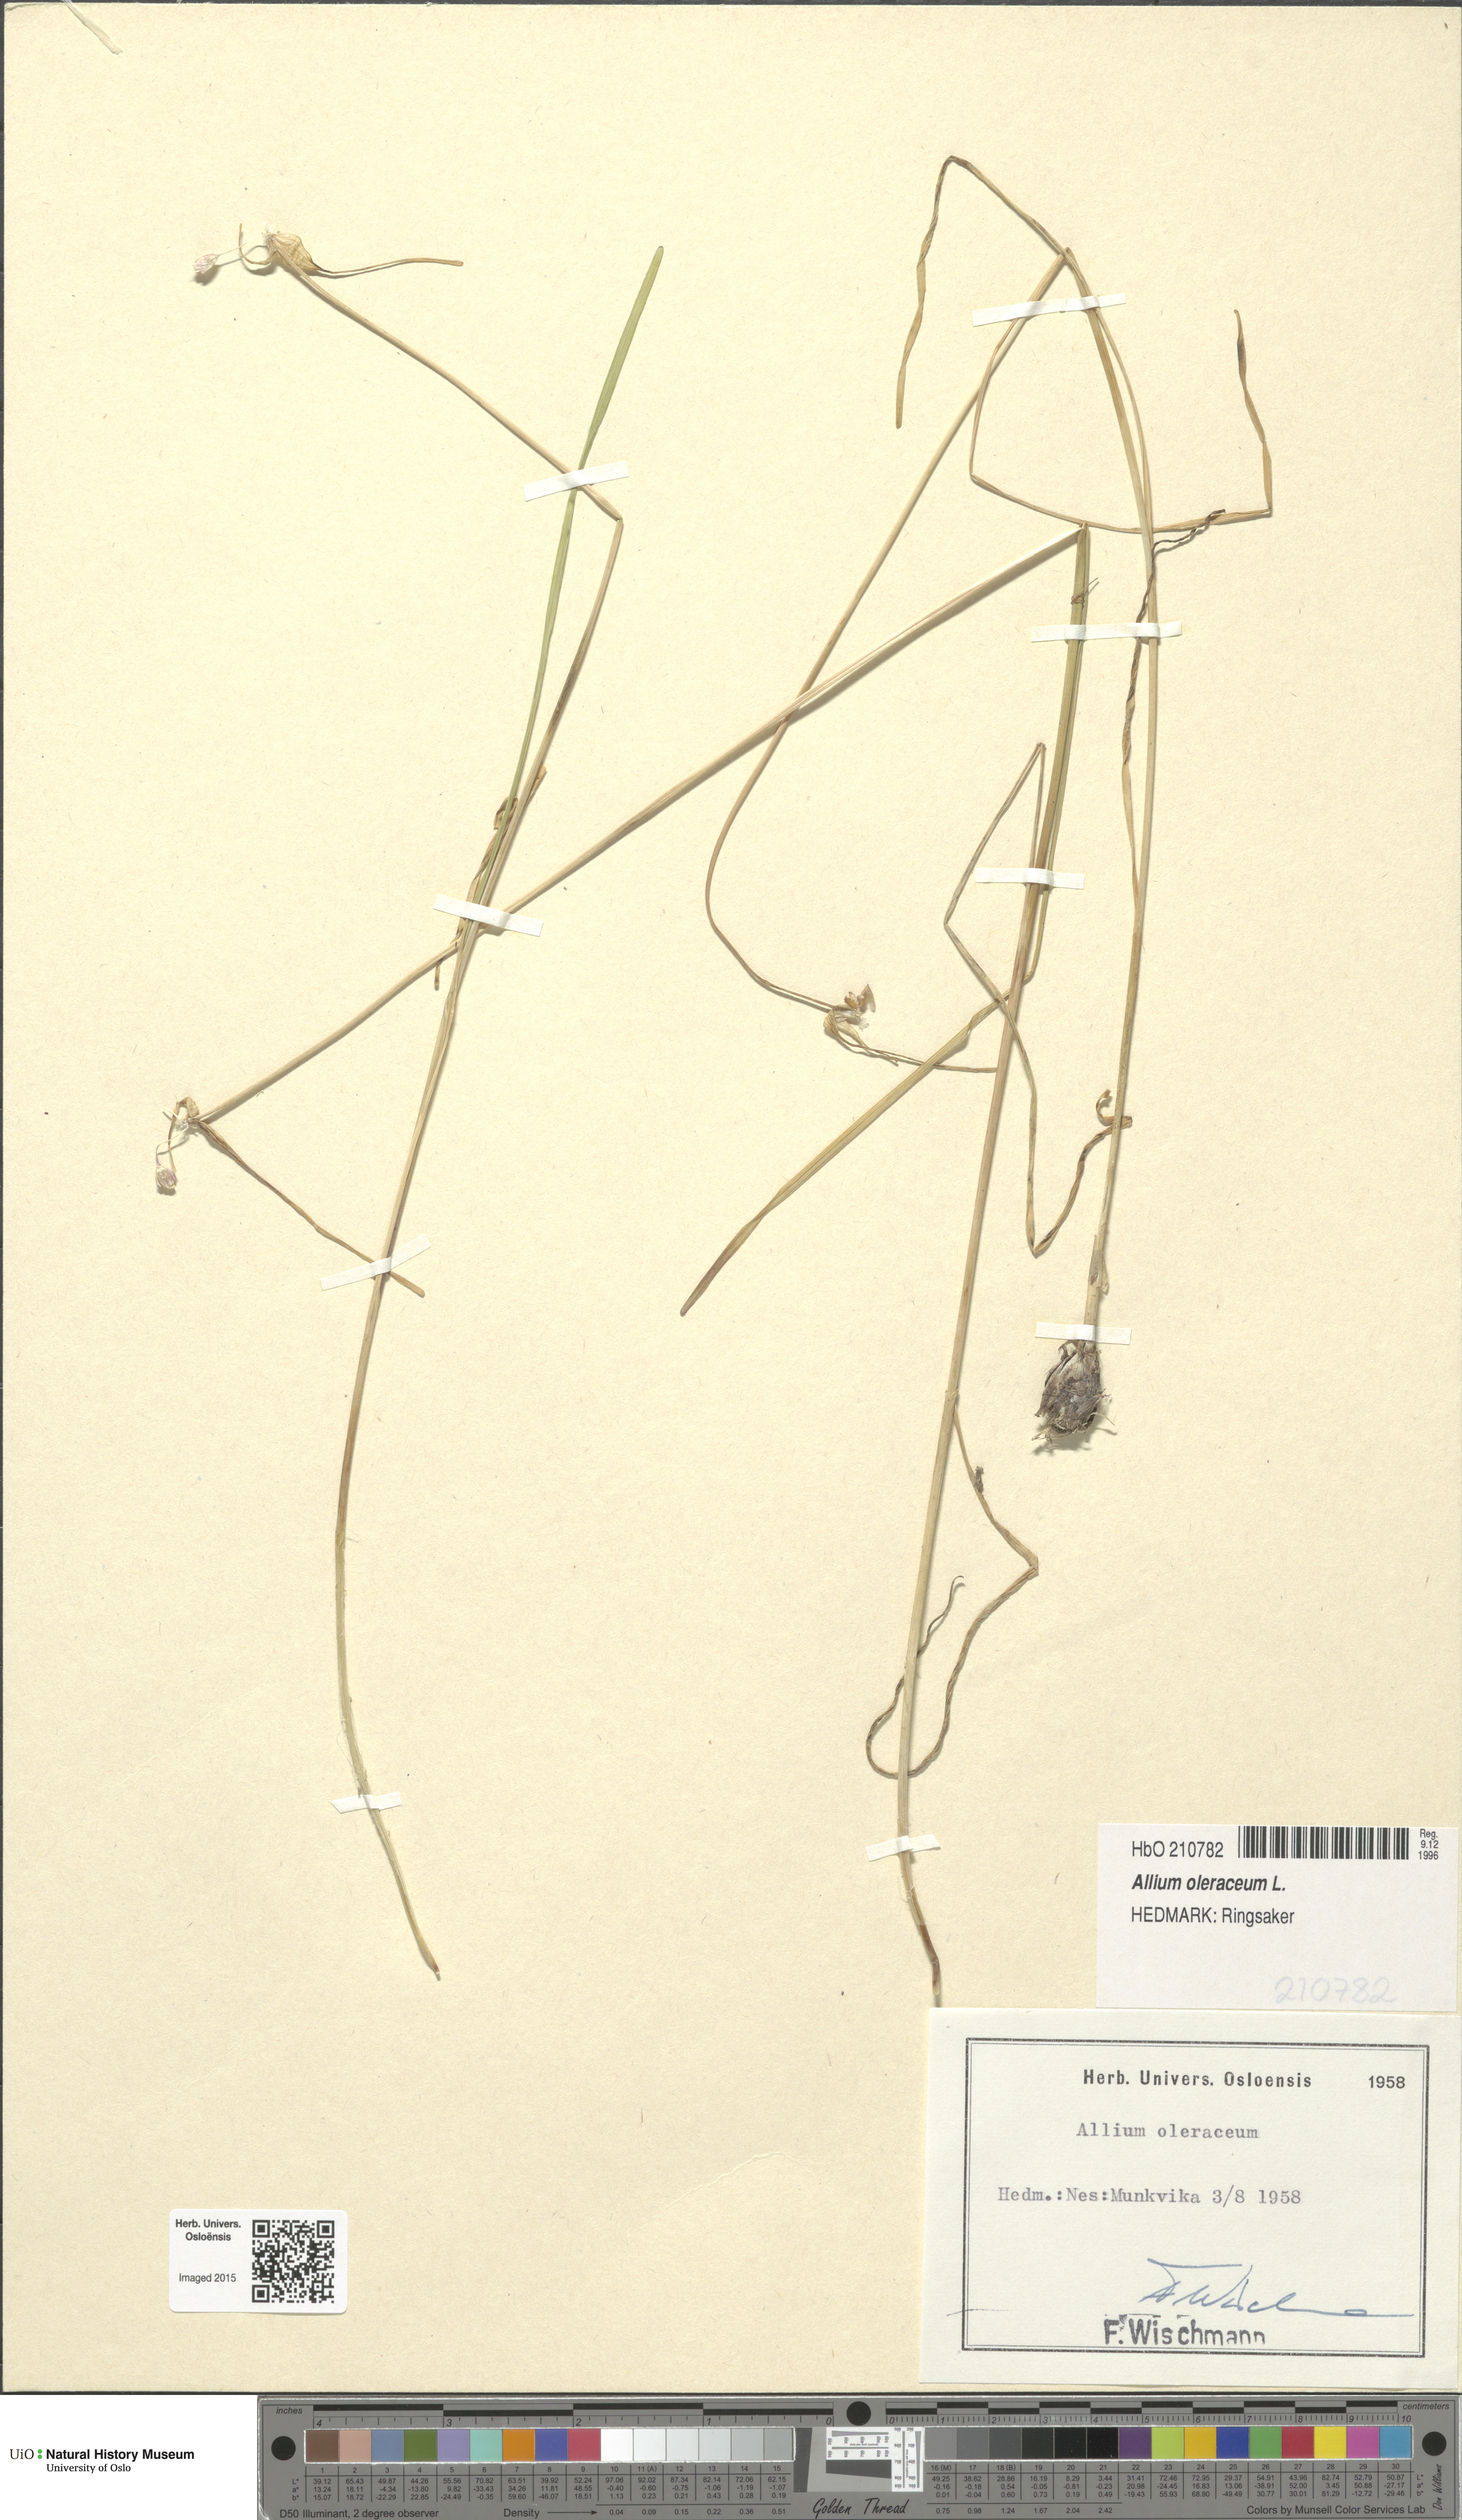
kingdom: Plantae
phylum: Tracheophyta
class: Liliopsida
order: Asparagales
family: Amaryllidaceae
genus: Allium
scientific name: Allium oleraceum
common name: Field garlic
